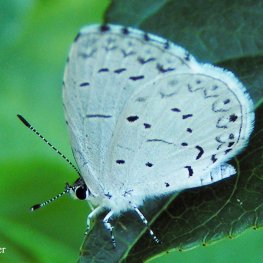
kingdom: Animalia
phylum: Arthropoda
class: Insecta
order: Lepidoptera
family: Lycaenidae
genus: Cyaniris
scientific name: Cyaniris neglecta
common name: Summer Azure
